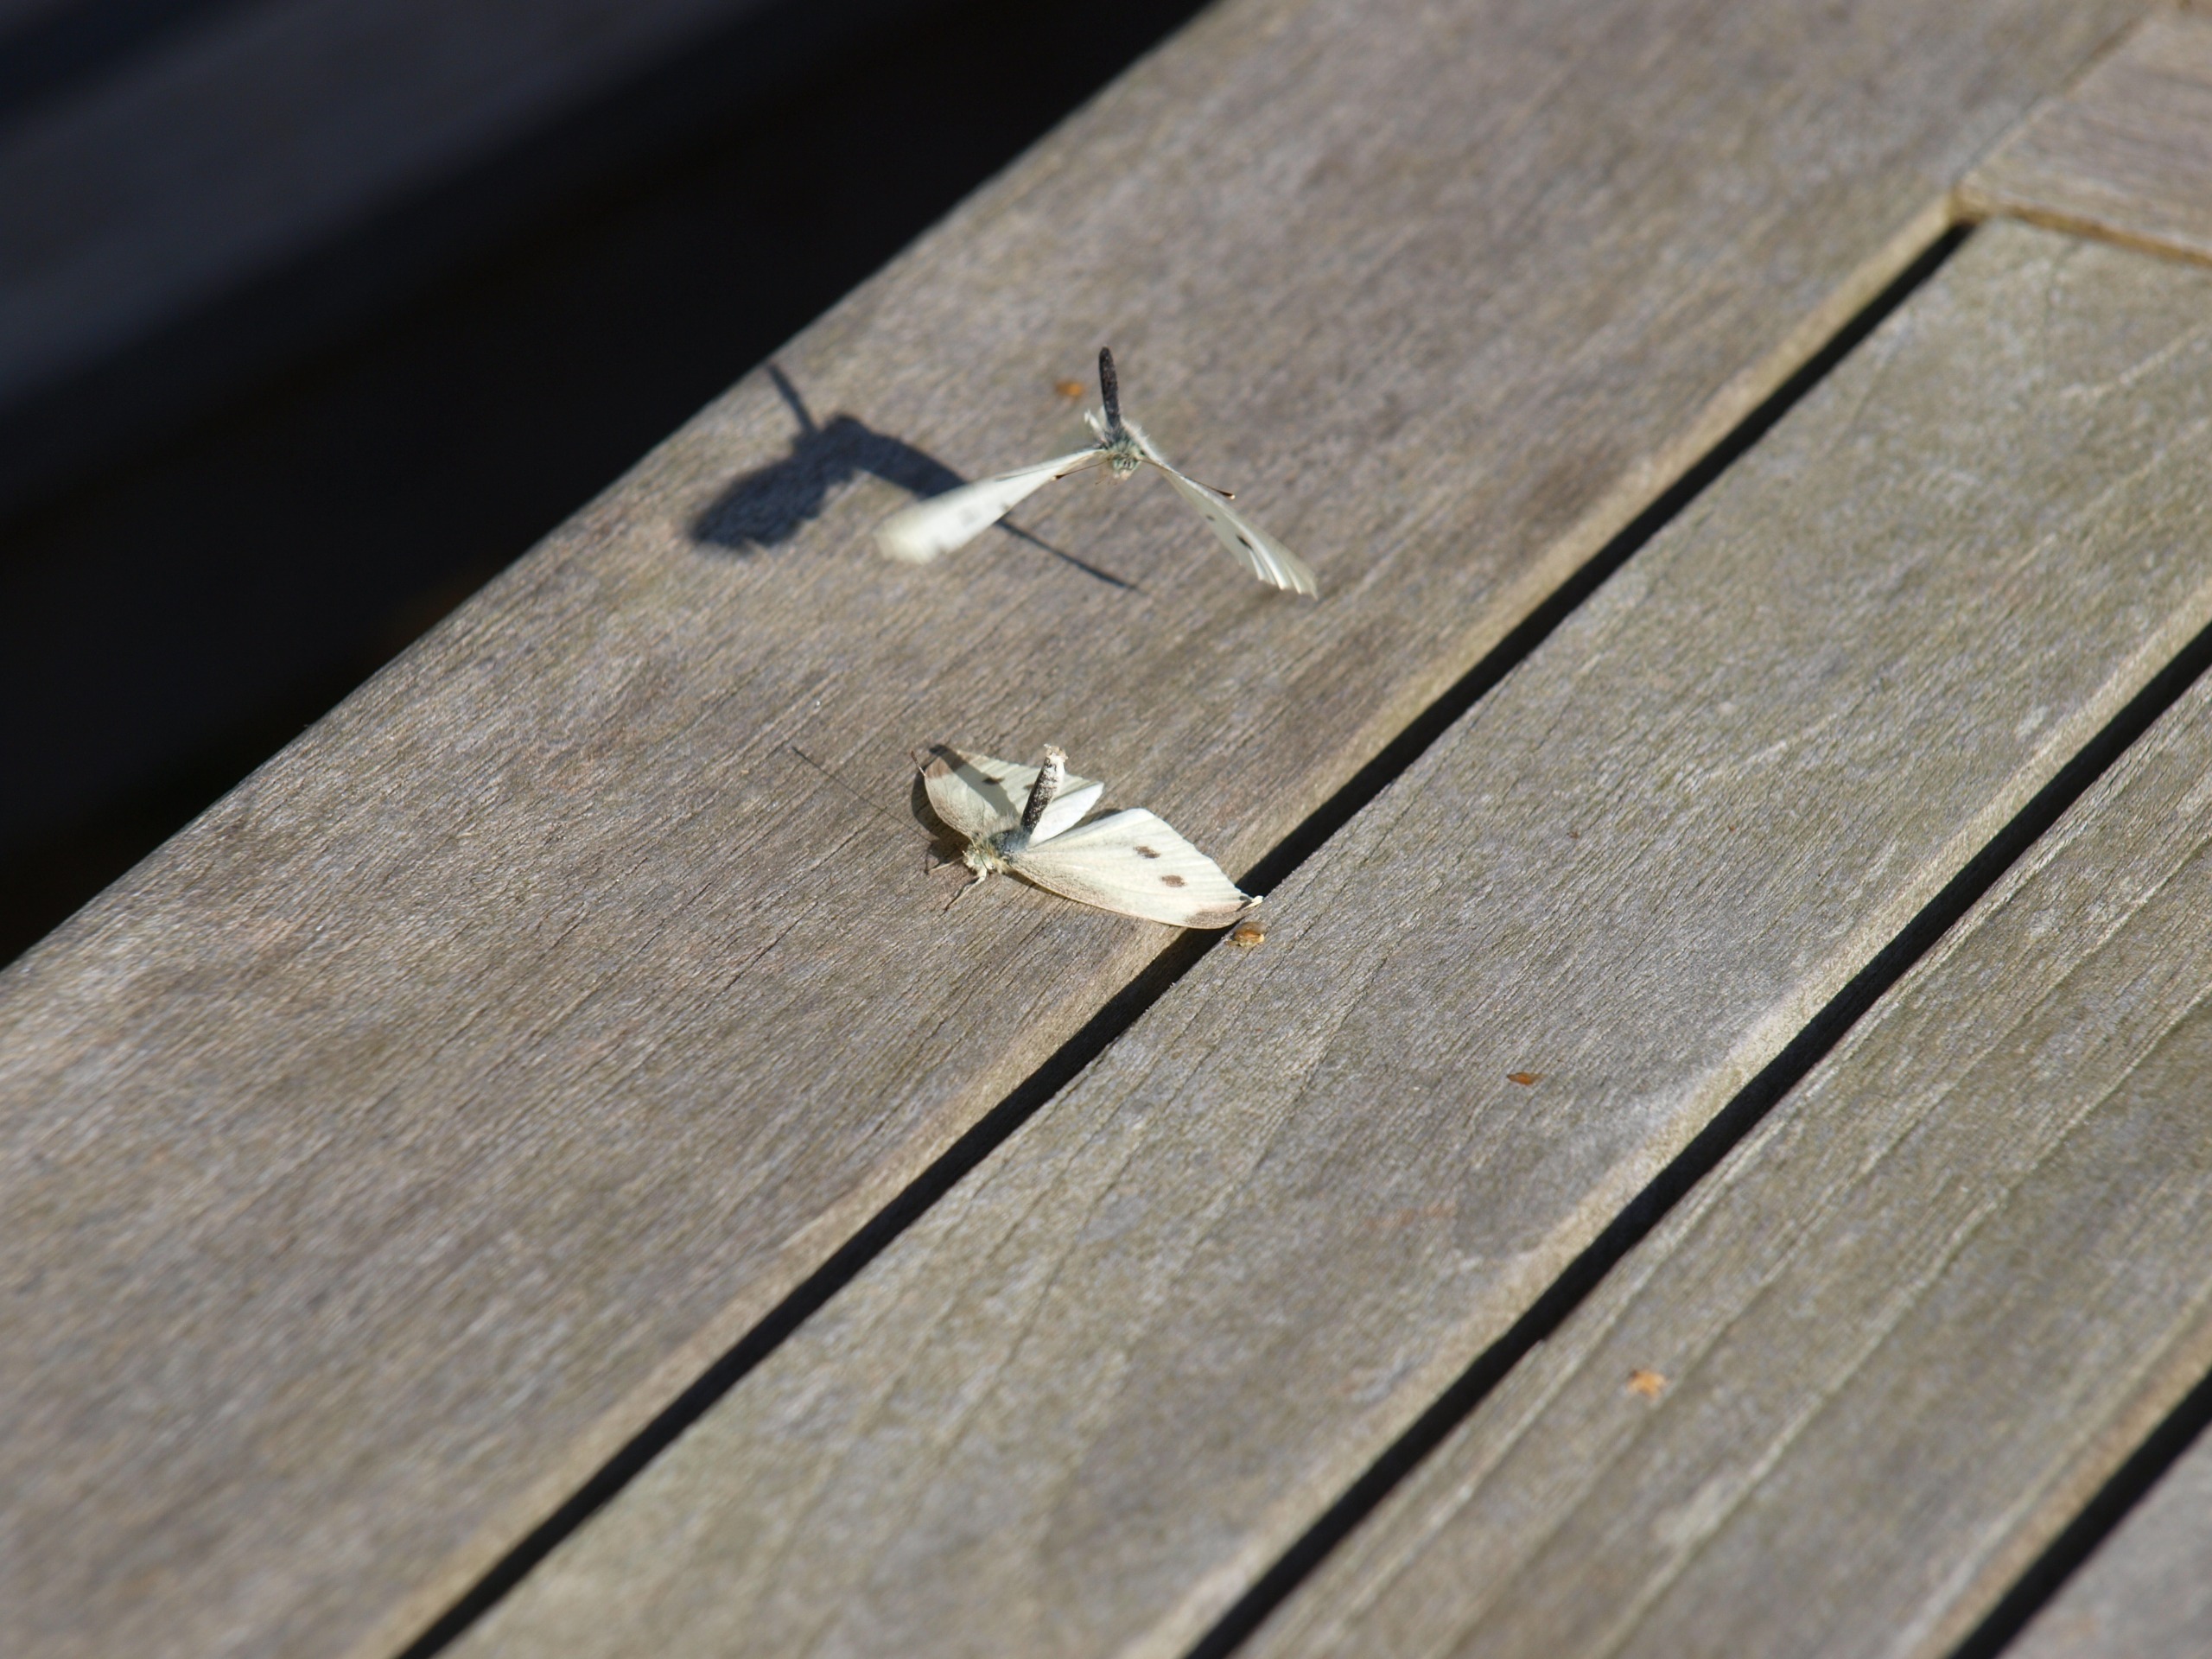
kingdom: Animalia
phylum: Arthropoda
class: Insecta
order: Lepidoptera
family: Pieridae
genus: Pieris
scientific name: Pieris rapae
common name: Lille kålsommerfugl
